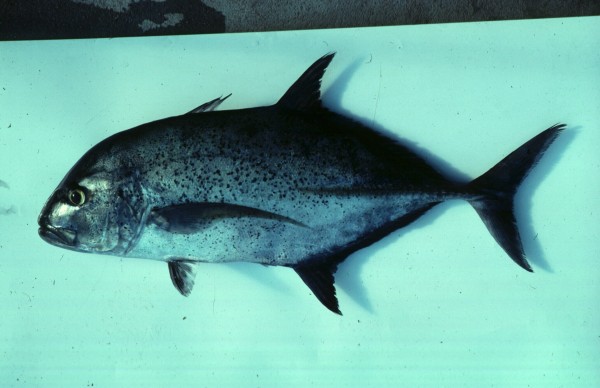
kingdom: Animalia
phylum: Chordata
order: Perciformes
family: Carangidae
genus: Caranx
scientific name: Caranx melampygus
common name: Bluefin trevally
